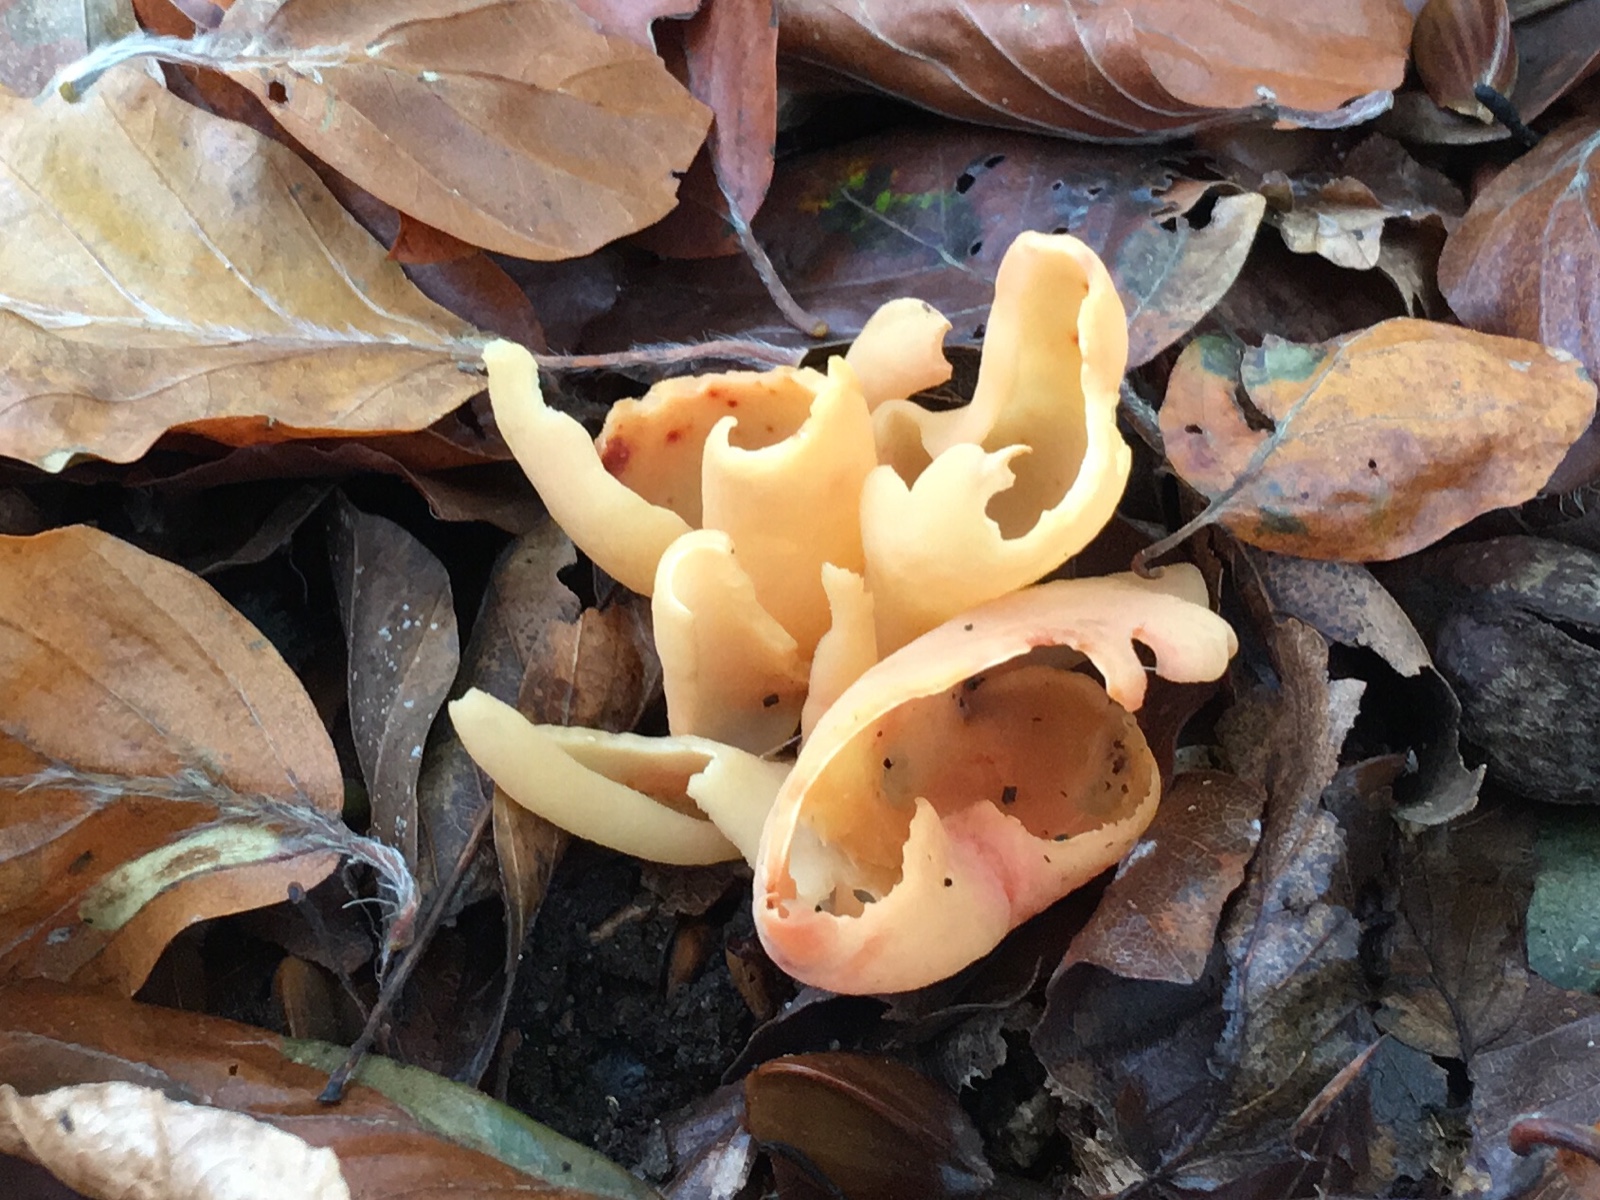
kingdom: Fungi
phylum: Ascomycota
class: Pezizomycetes
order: Pezizales
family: Otideaceae
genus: Otidea
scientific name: Otidea onotica
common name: æsel-ørebæger
